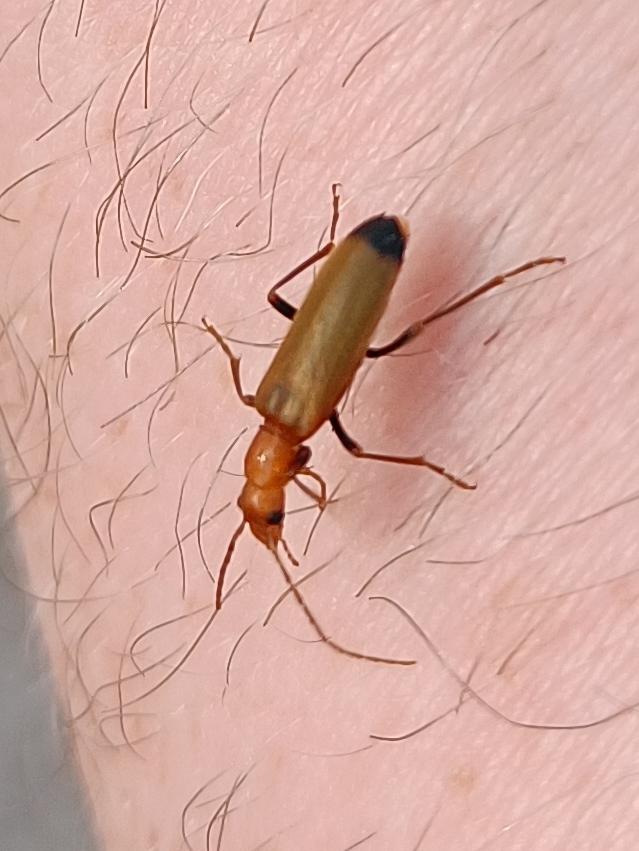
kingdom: Animalia
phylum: Arthropoda
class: Insecta
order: Coleoptera
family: Cantharidae
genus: Rhagonycha
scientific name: Rhagonycha fulva
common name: Præstebille
